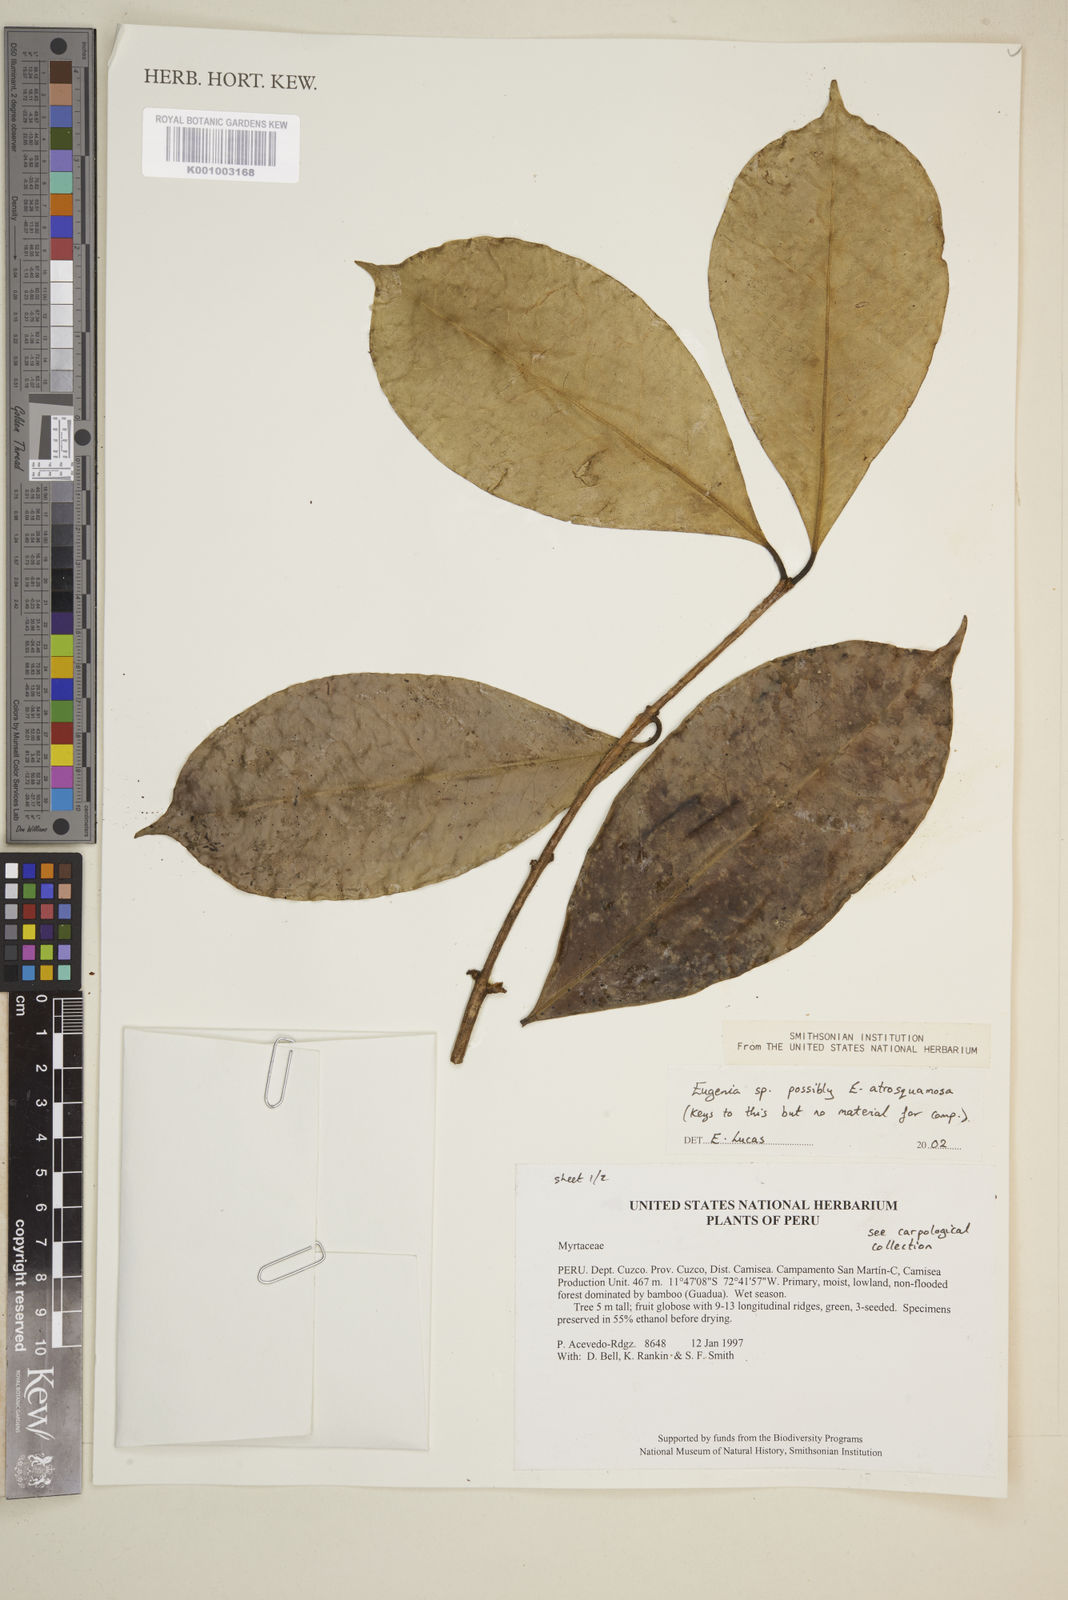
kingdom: Plantae
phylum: Tracheophyta
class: Magnoliopsida
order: Myrtales
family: Myrtaceae
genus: Eugenia
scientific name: Eugenia
